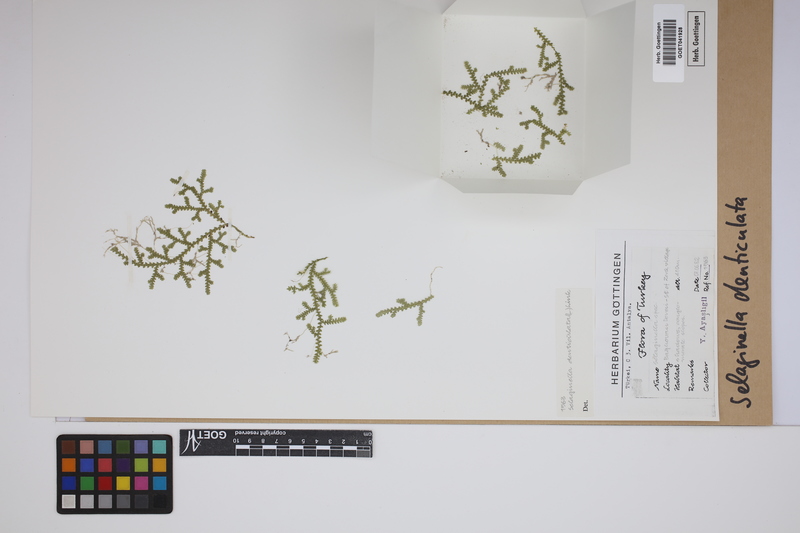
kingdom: Plantae
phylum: Tracheophyta
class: Lycopodiopsida
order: Selaginellales
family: Selaginellaceae
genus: Selaginella
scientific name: Selaginella denticulata
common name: Toothed-leaved clubmoss
